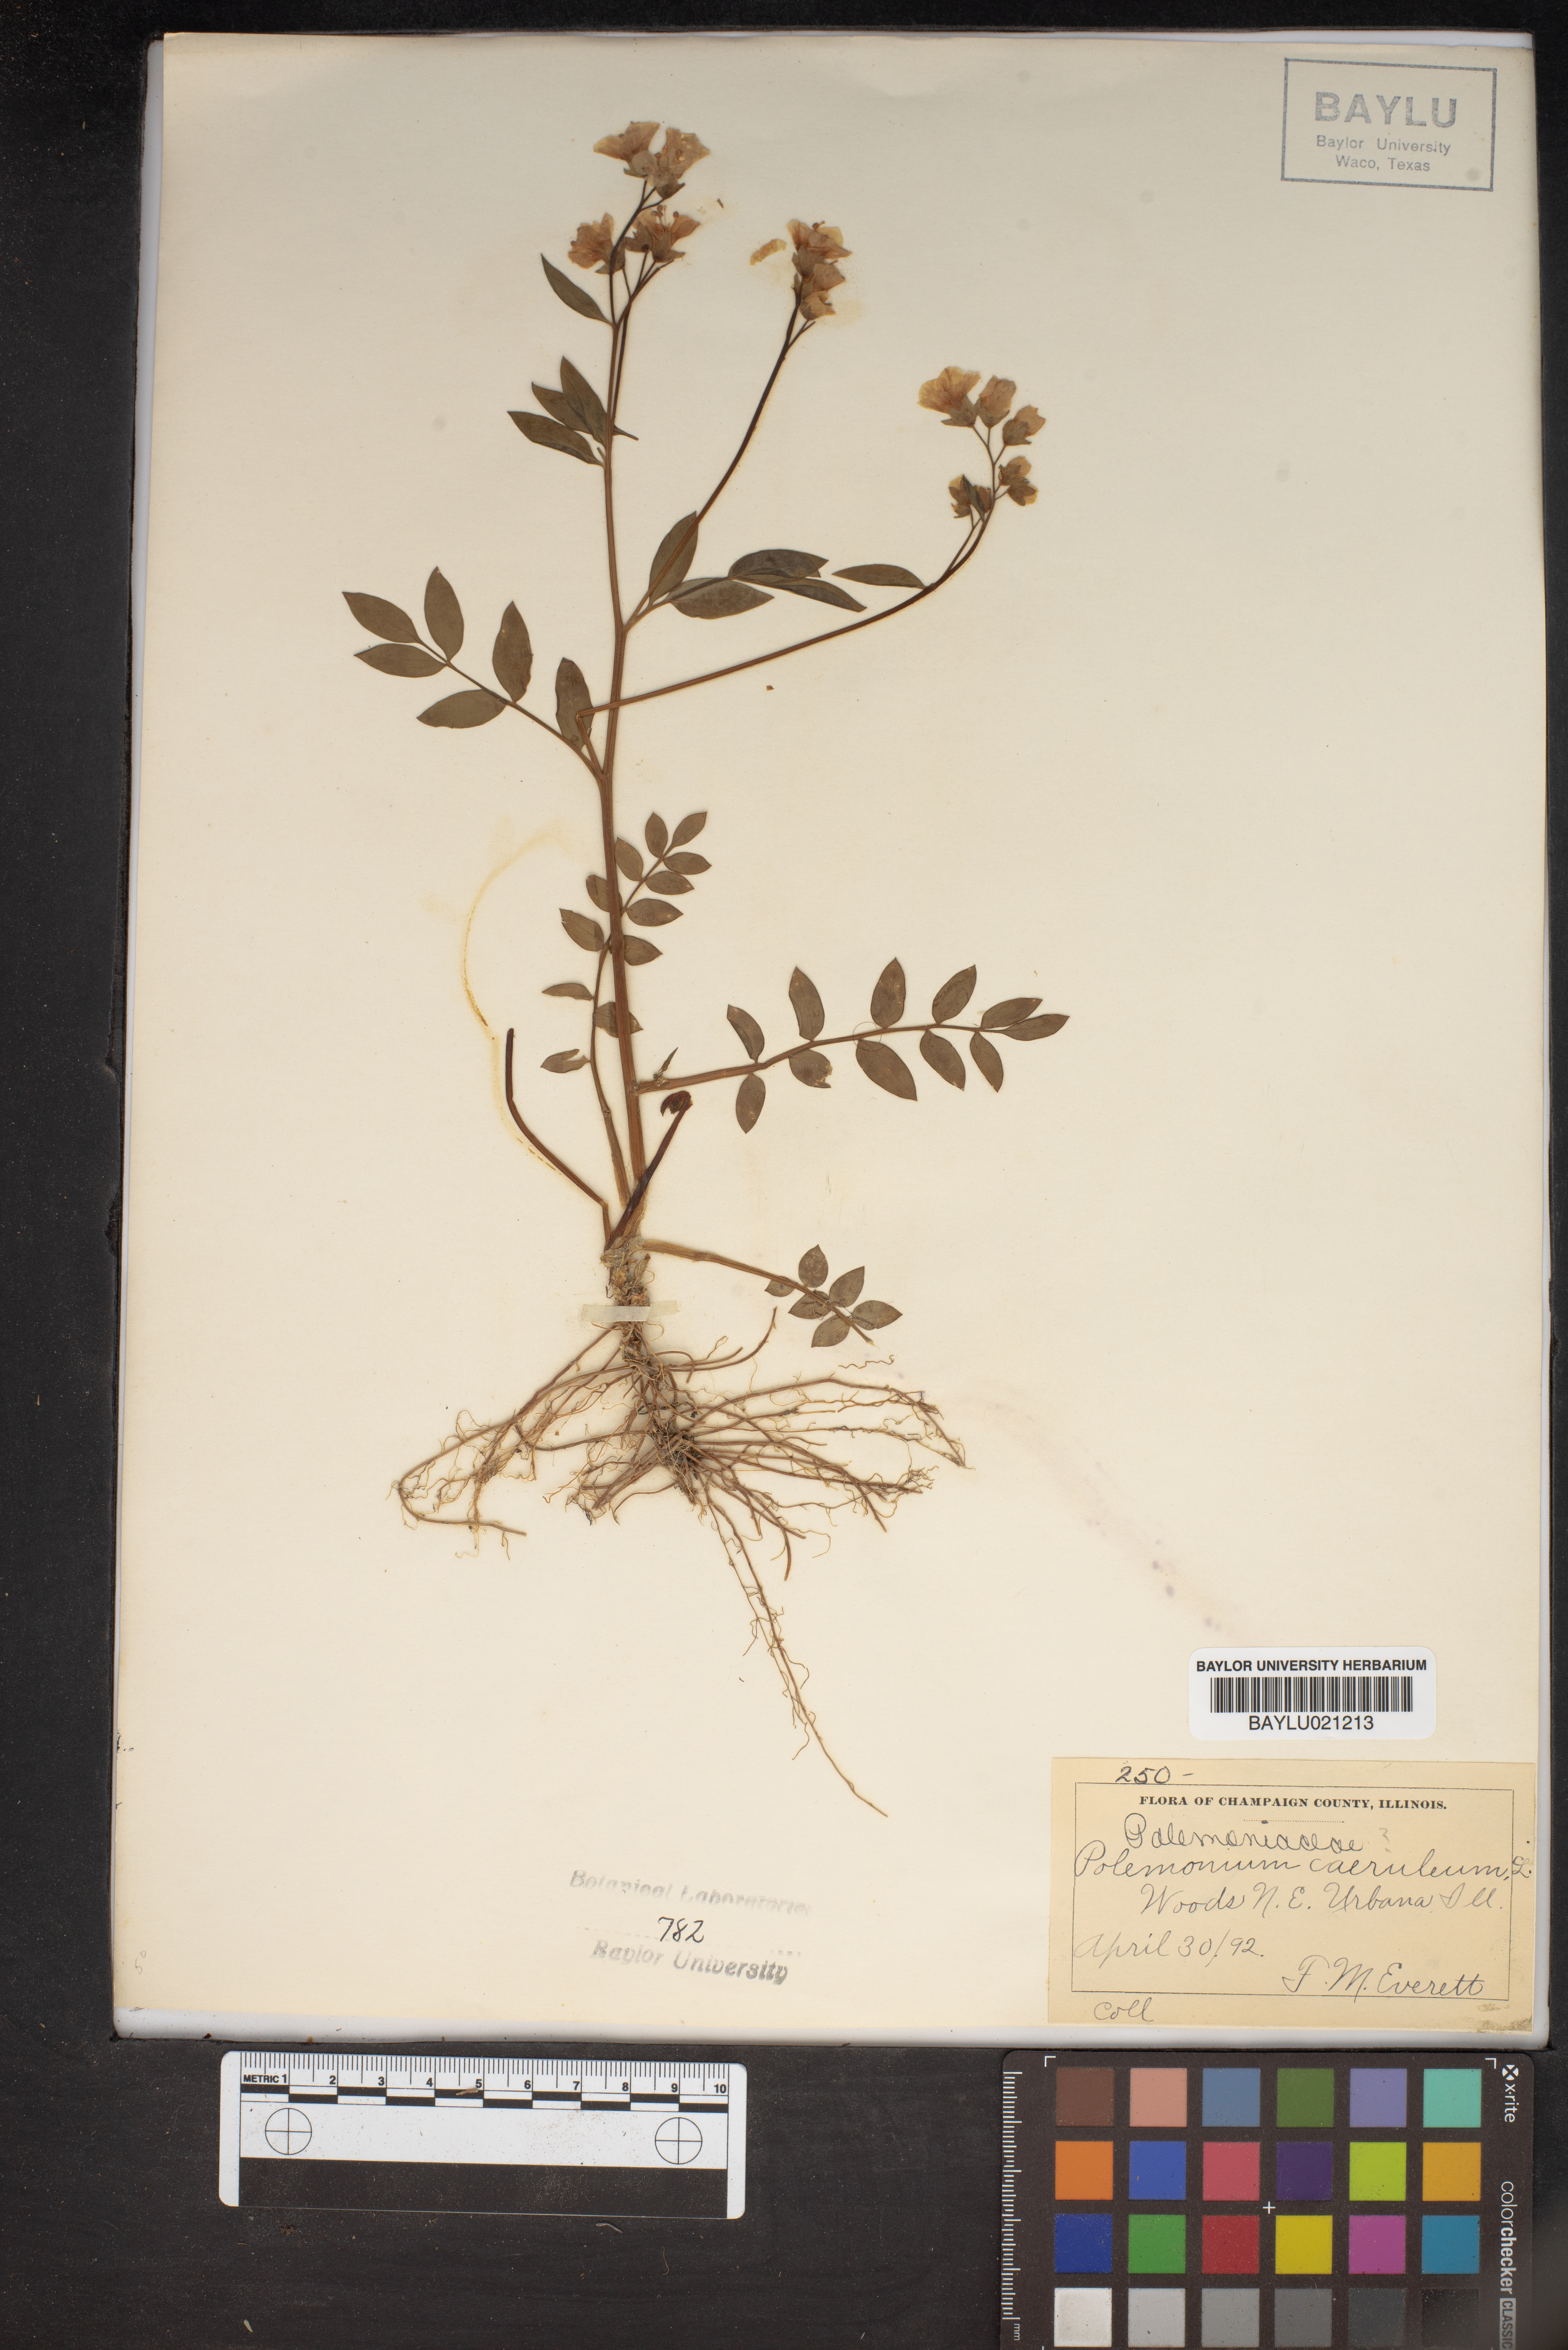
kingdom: Plantae
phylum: Tracheophyta
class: Magnoliopsida
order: Ericales
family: Polemoniaceae
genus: Polemonium
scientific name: Polemonium caeruleum
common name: Jacob's-ladder
